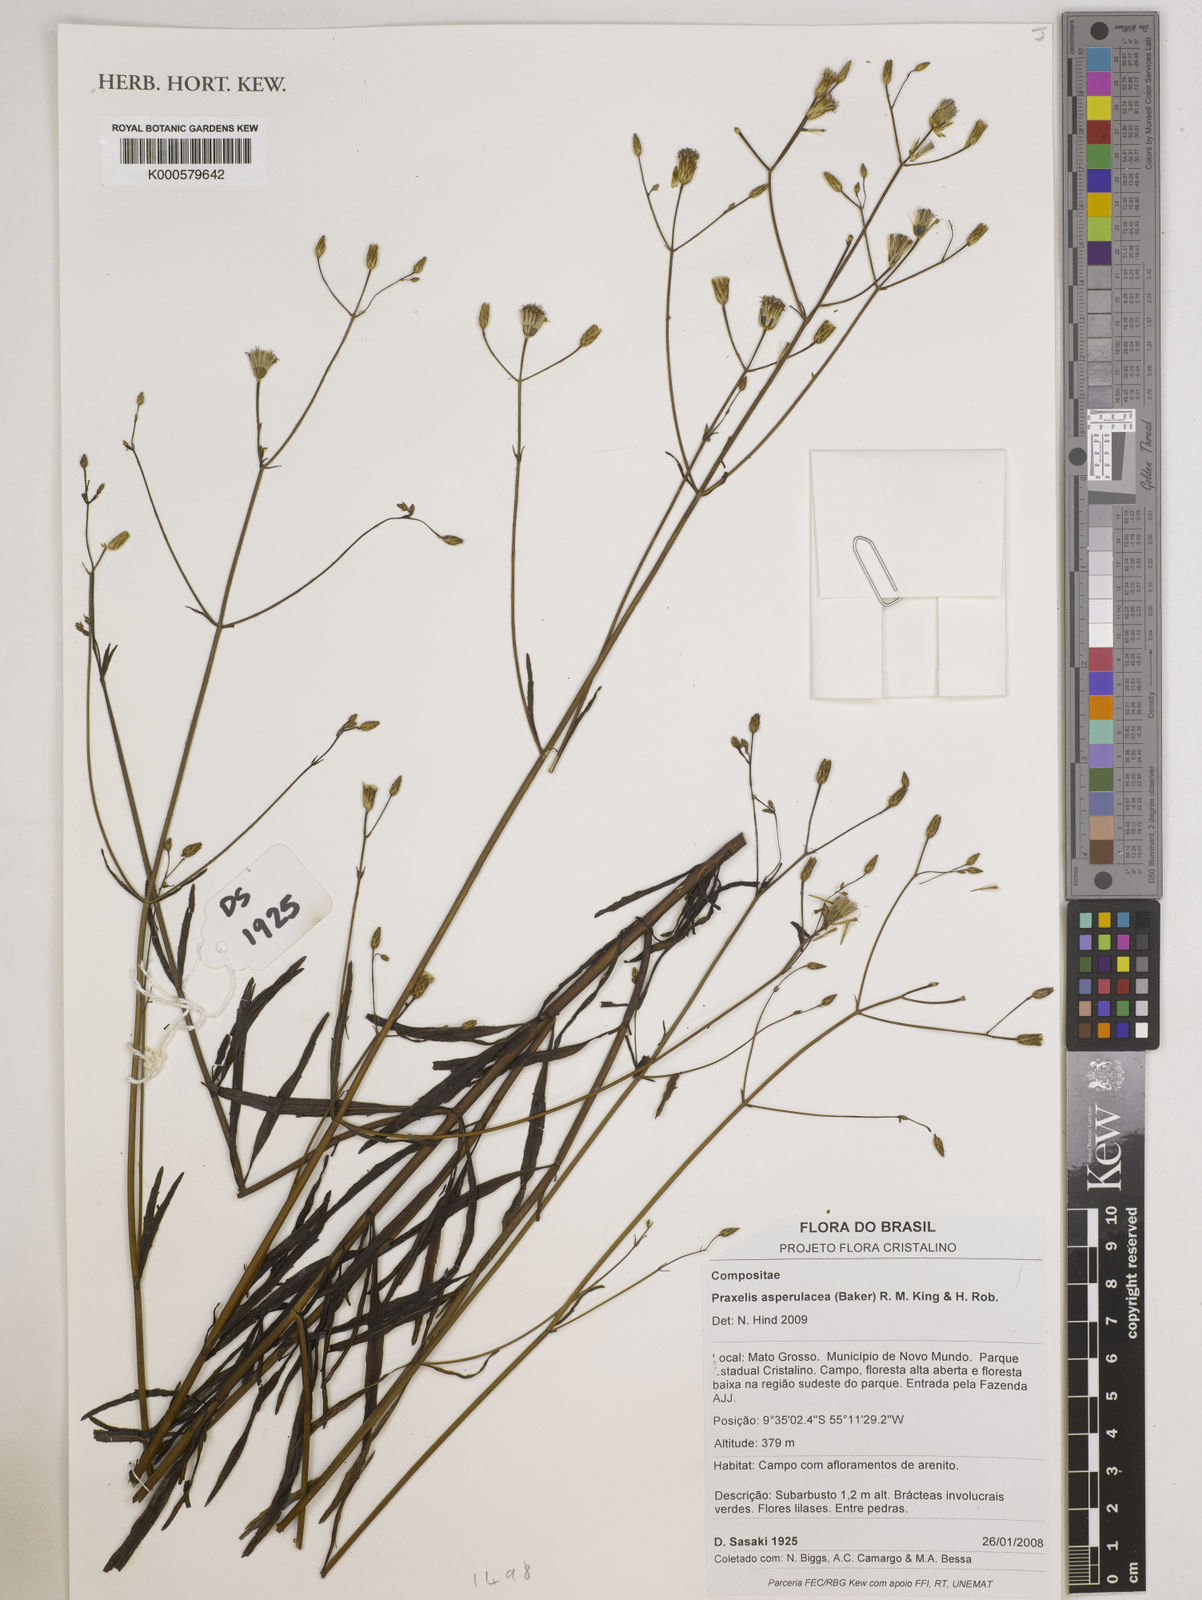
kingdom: Plantae
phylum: Tracheophyta
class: Magnoliopsida
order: Asterales
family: Asteraceae
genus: Praxelis
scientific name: Praxelis asperulacea
